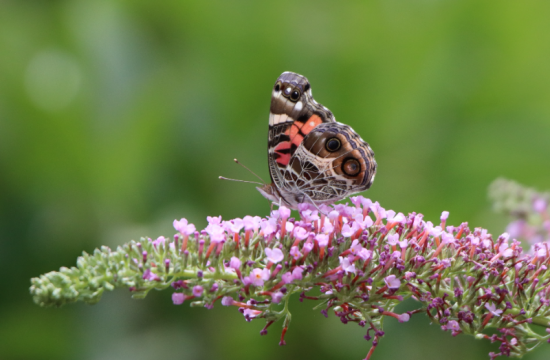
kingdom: Animalia
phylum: Arthropoda
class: Insecta
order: Lepidoptera
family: Nymphalidae
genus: Vanessa
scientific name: Vanessa virginiensis
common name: American Lady
